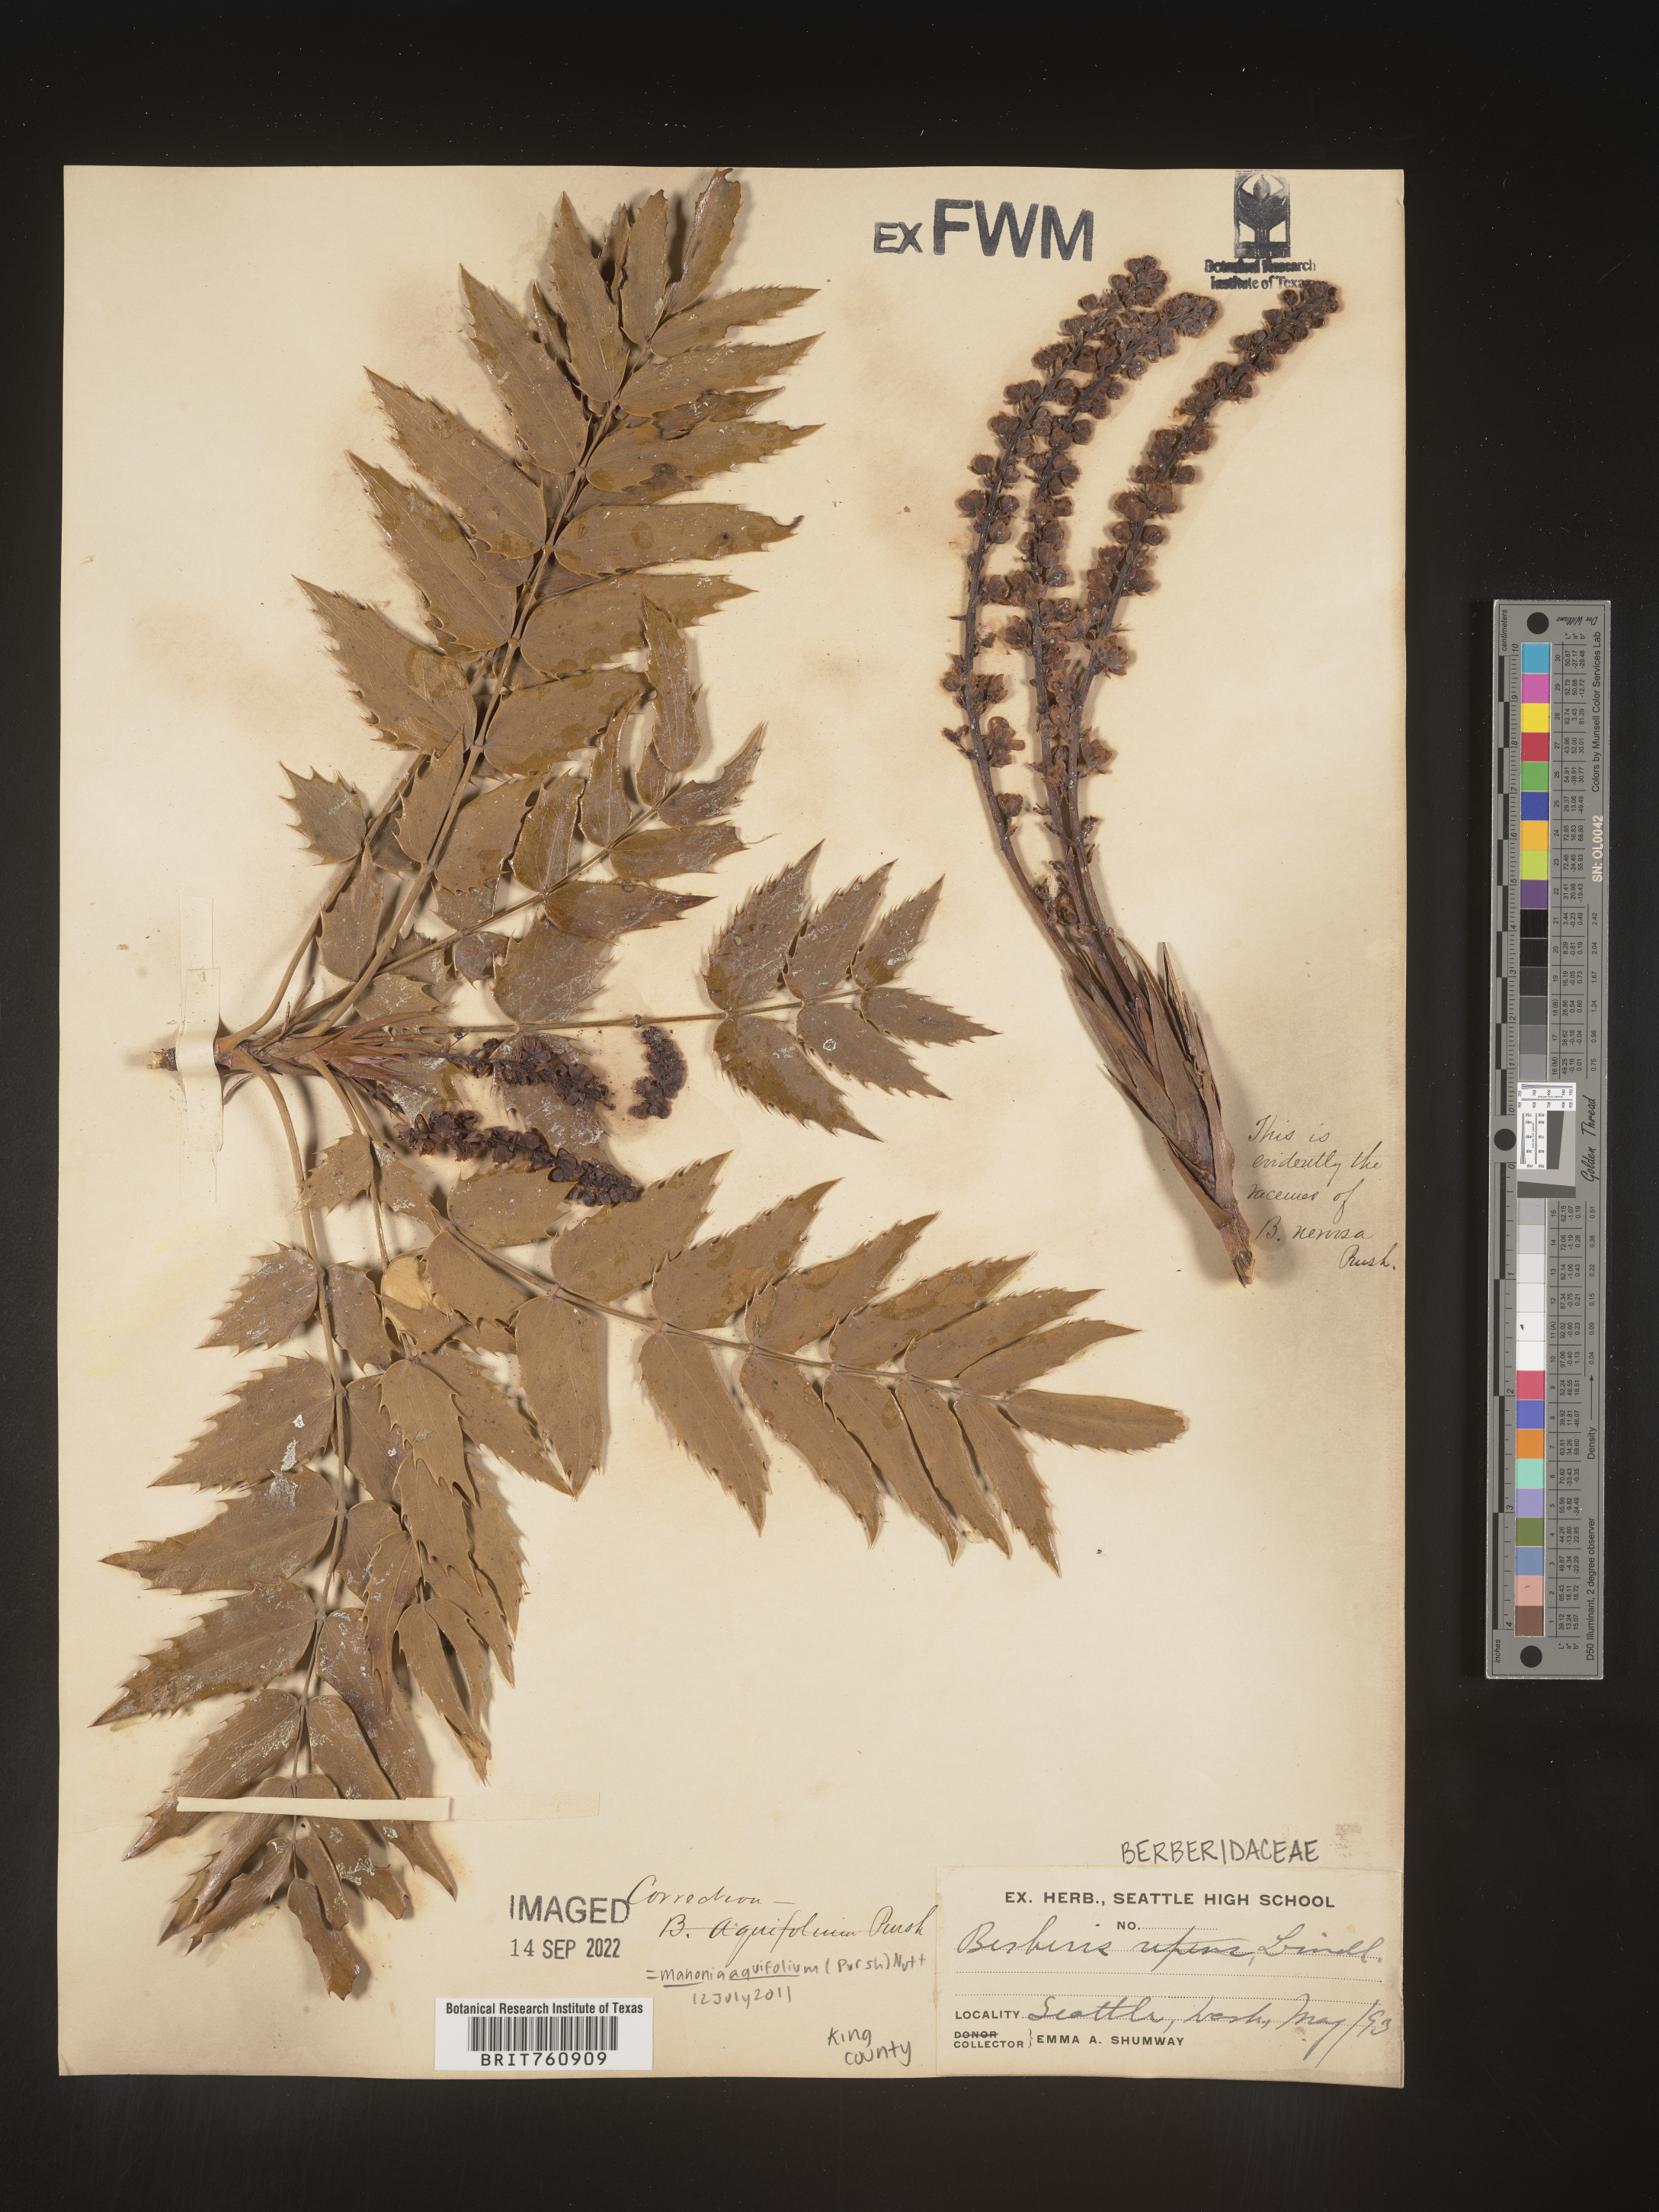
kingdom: Plantae
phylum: Tracheophyta
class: Magnoliopsida
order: Ranunculales
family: Berberidaceae
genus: Mahonia
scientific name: Mahonia aquifolium
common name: Oregon-grape
